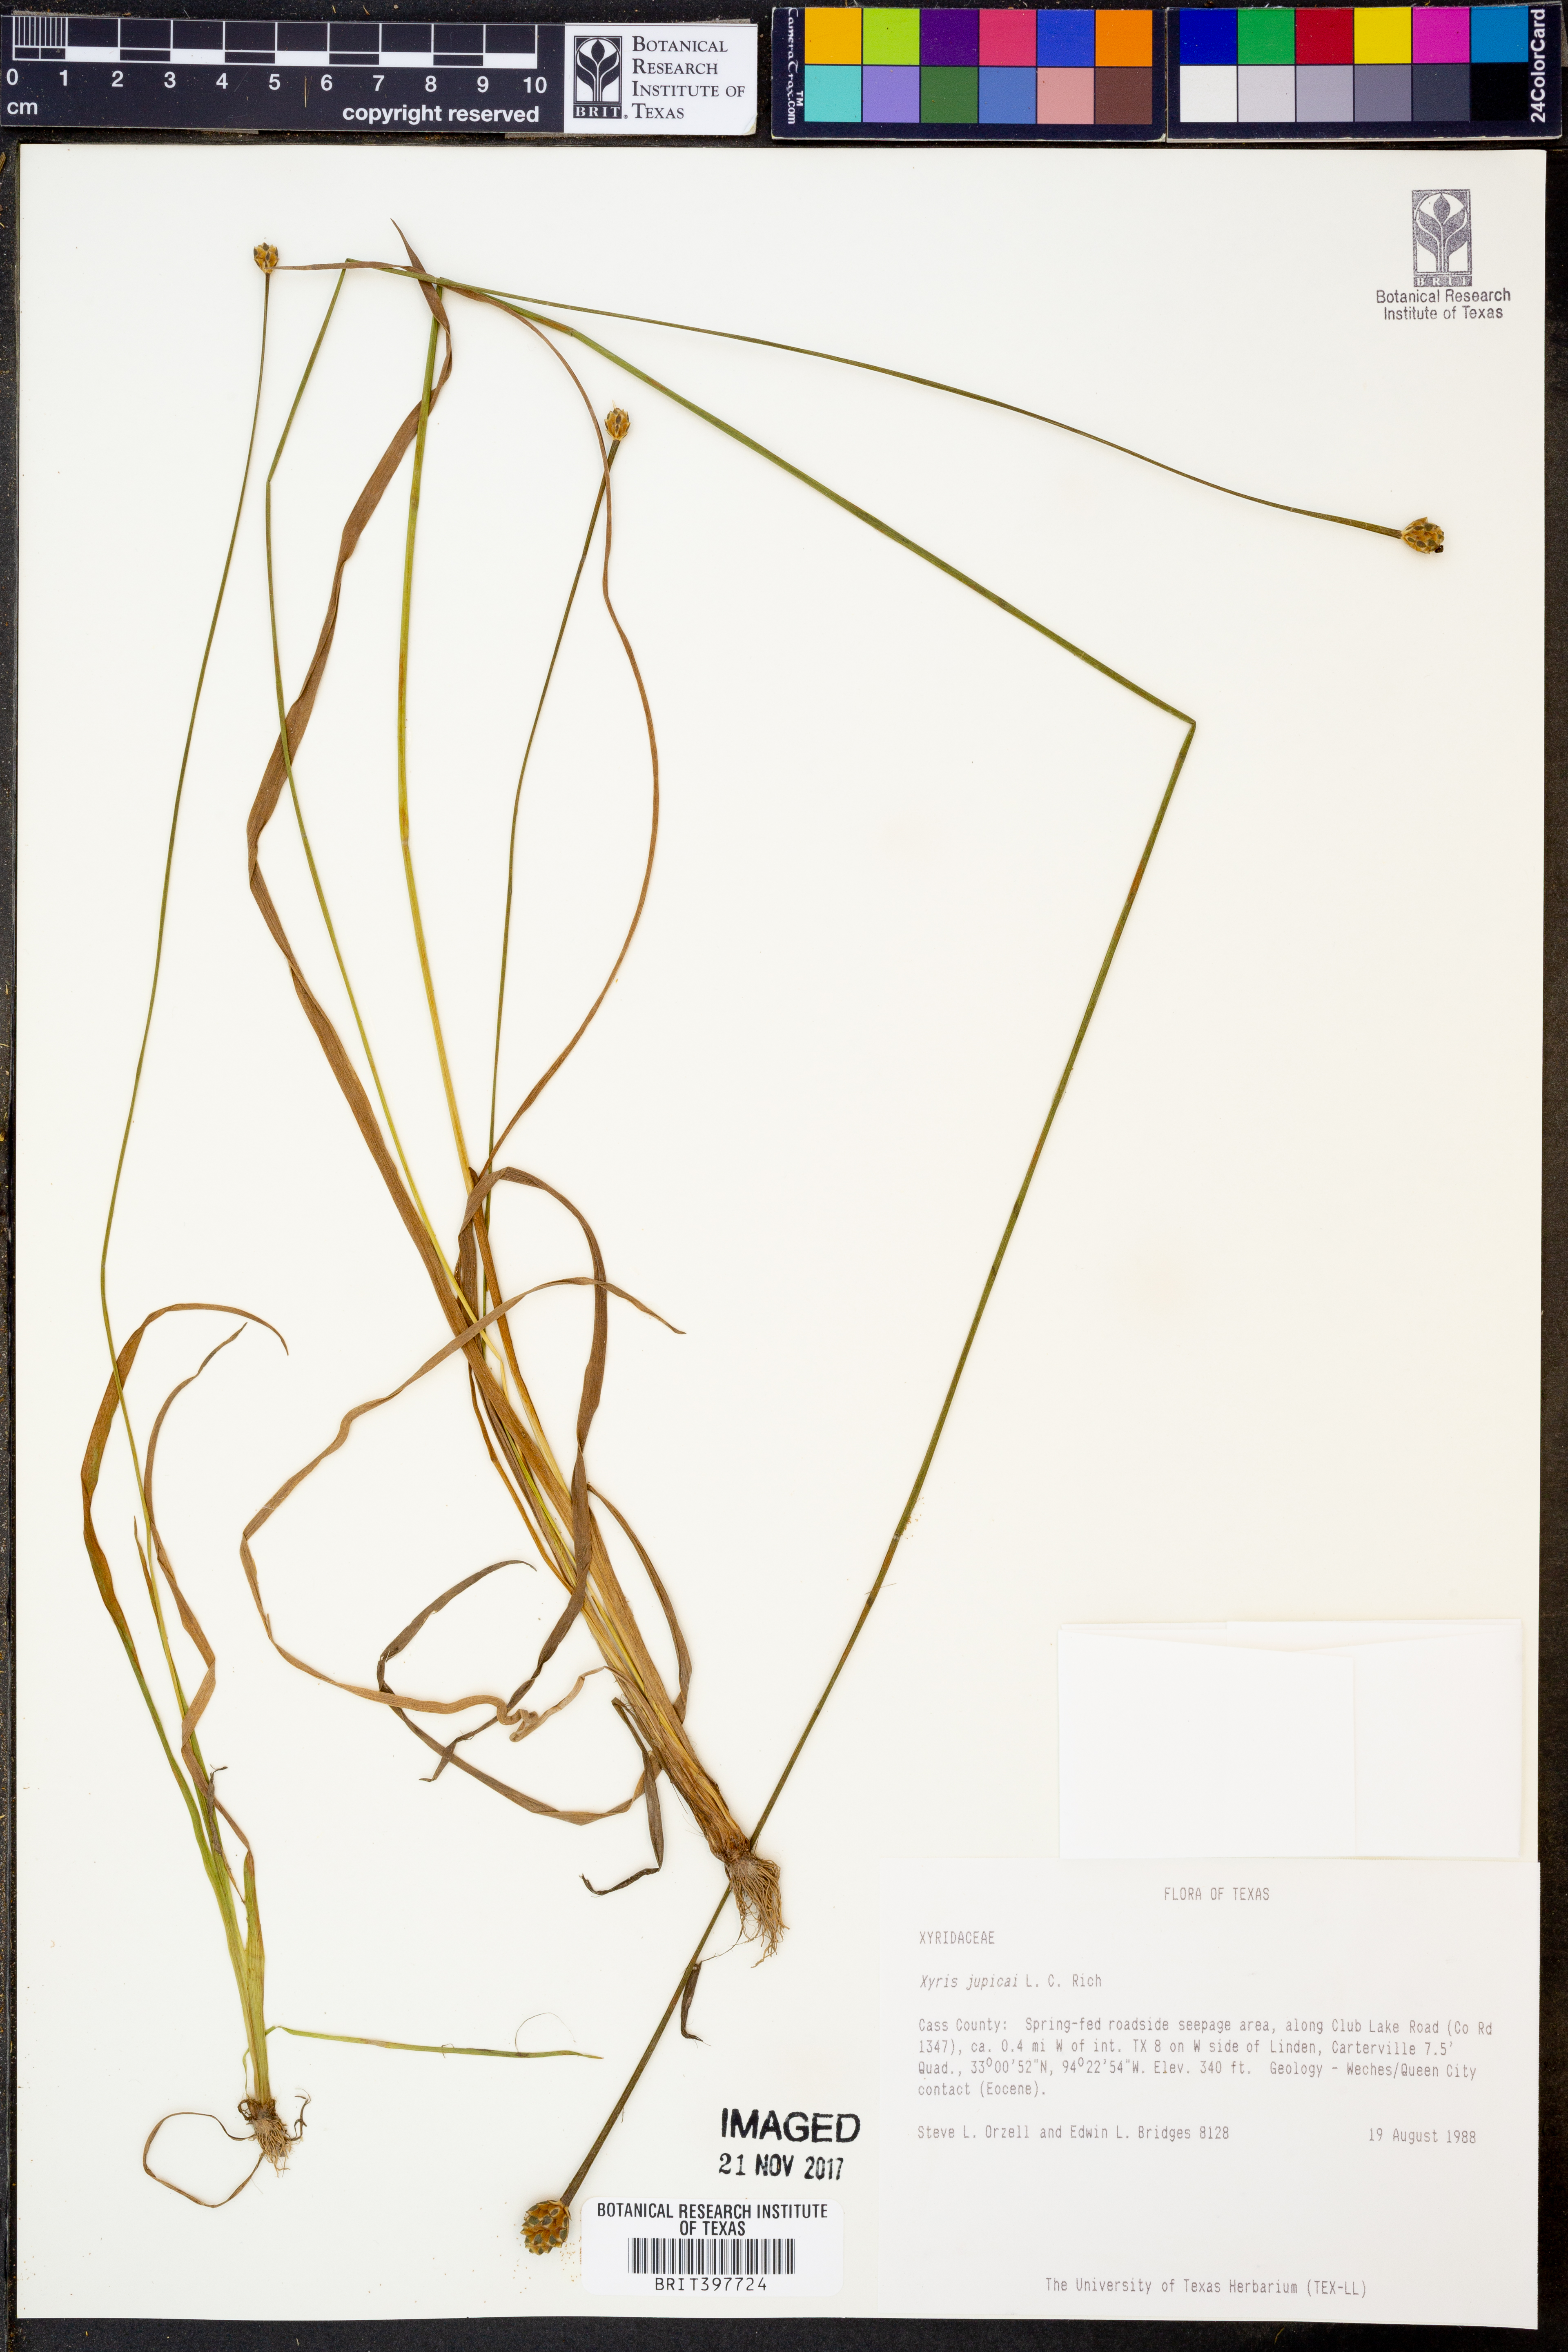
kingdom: Plantae
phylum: Tracheophyta
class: Liliopsida
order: Poales
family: Xyridaceae
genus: Xyris
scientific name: Xyris jupicai
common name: Richard's yelloweyed grass
